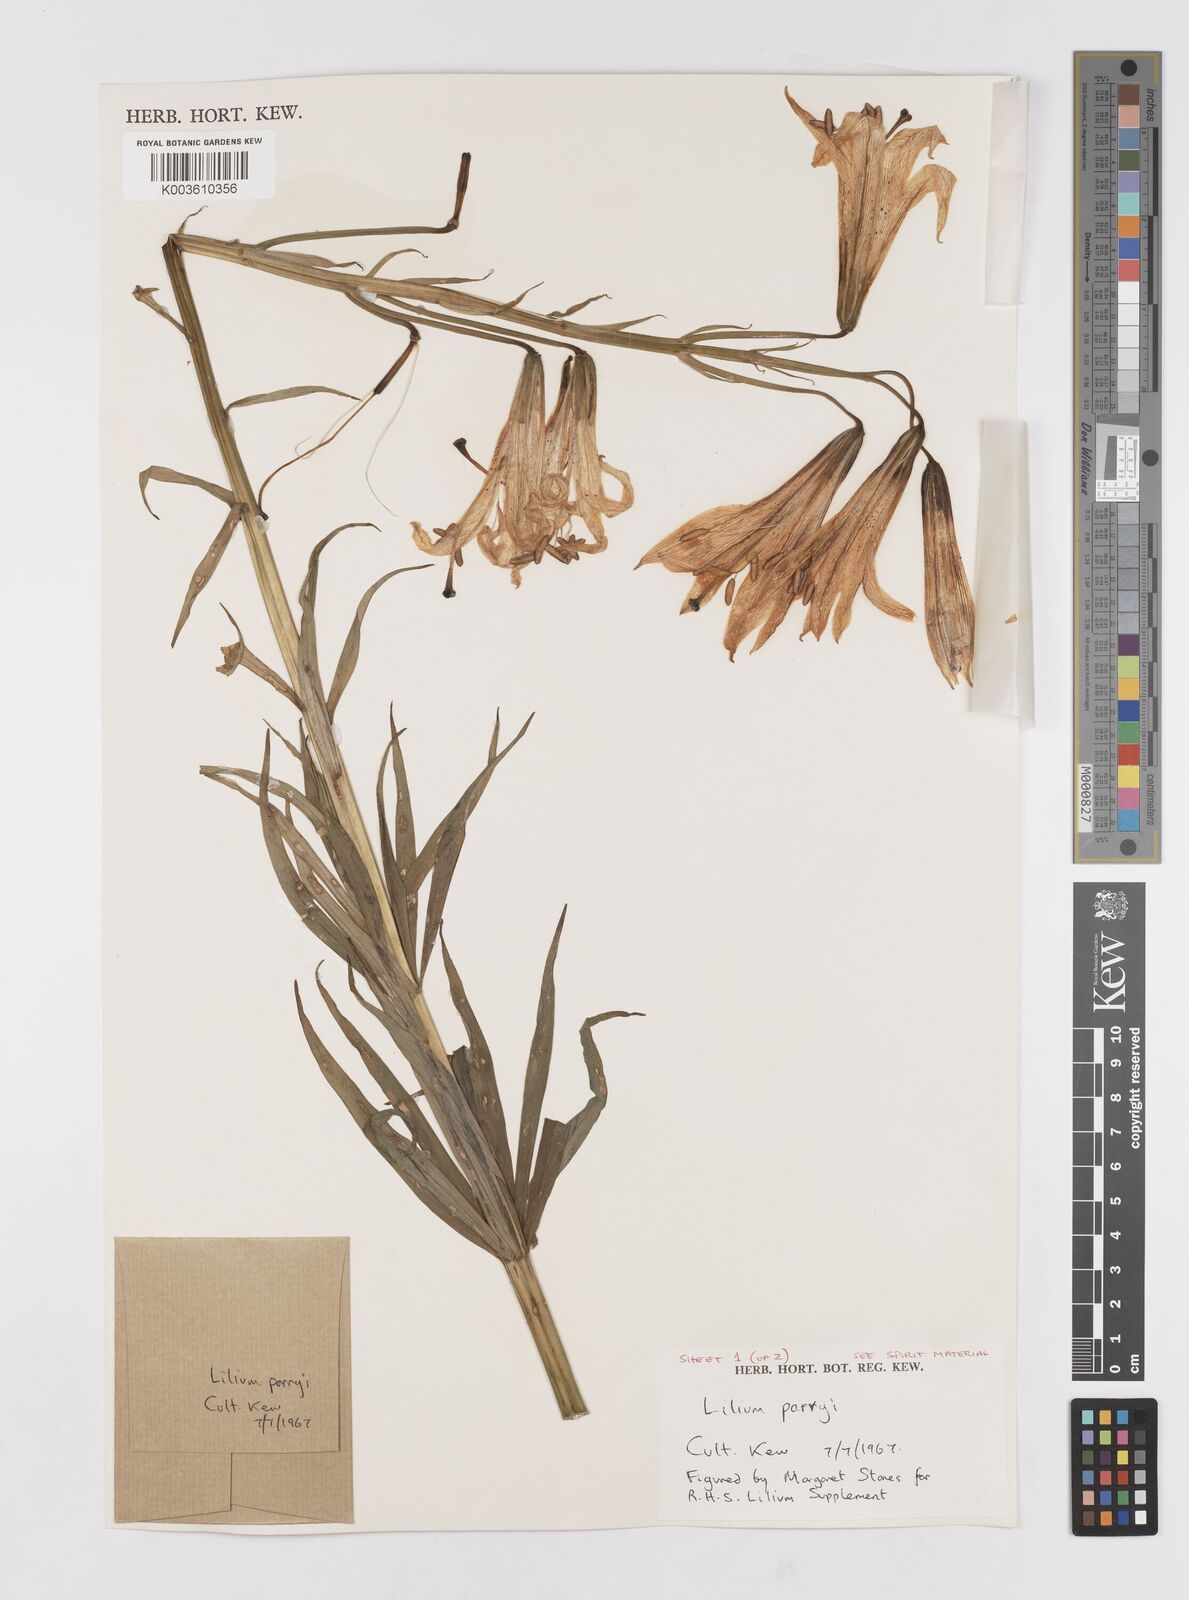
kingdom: Plantae
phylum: Tracheophyta
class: Liliopsida
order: Liliales
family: Liliaceae
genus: Lilium
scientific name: Lilium parryi
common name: Lemon lily
